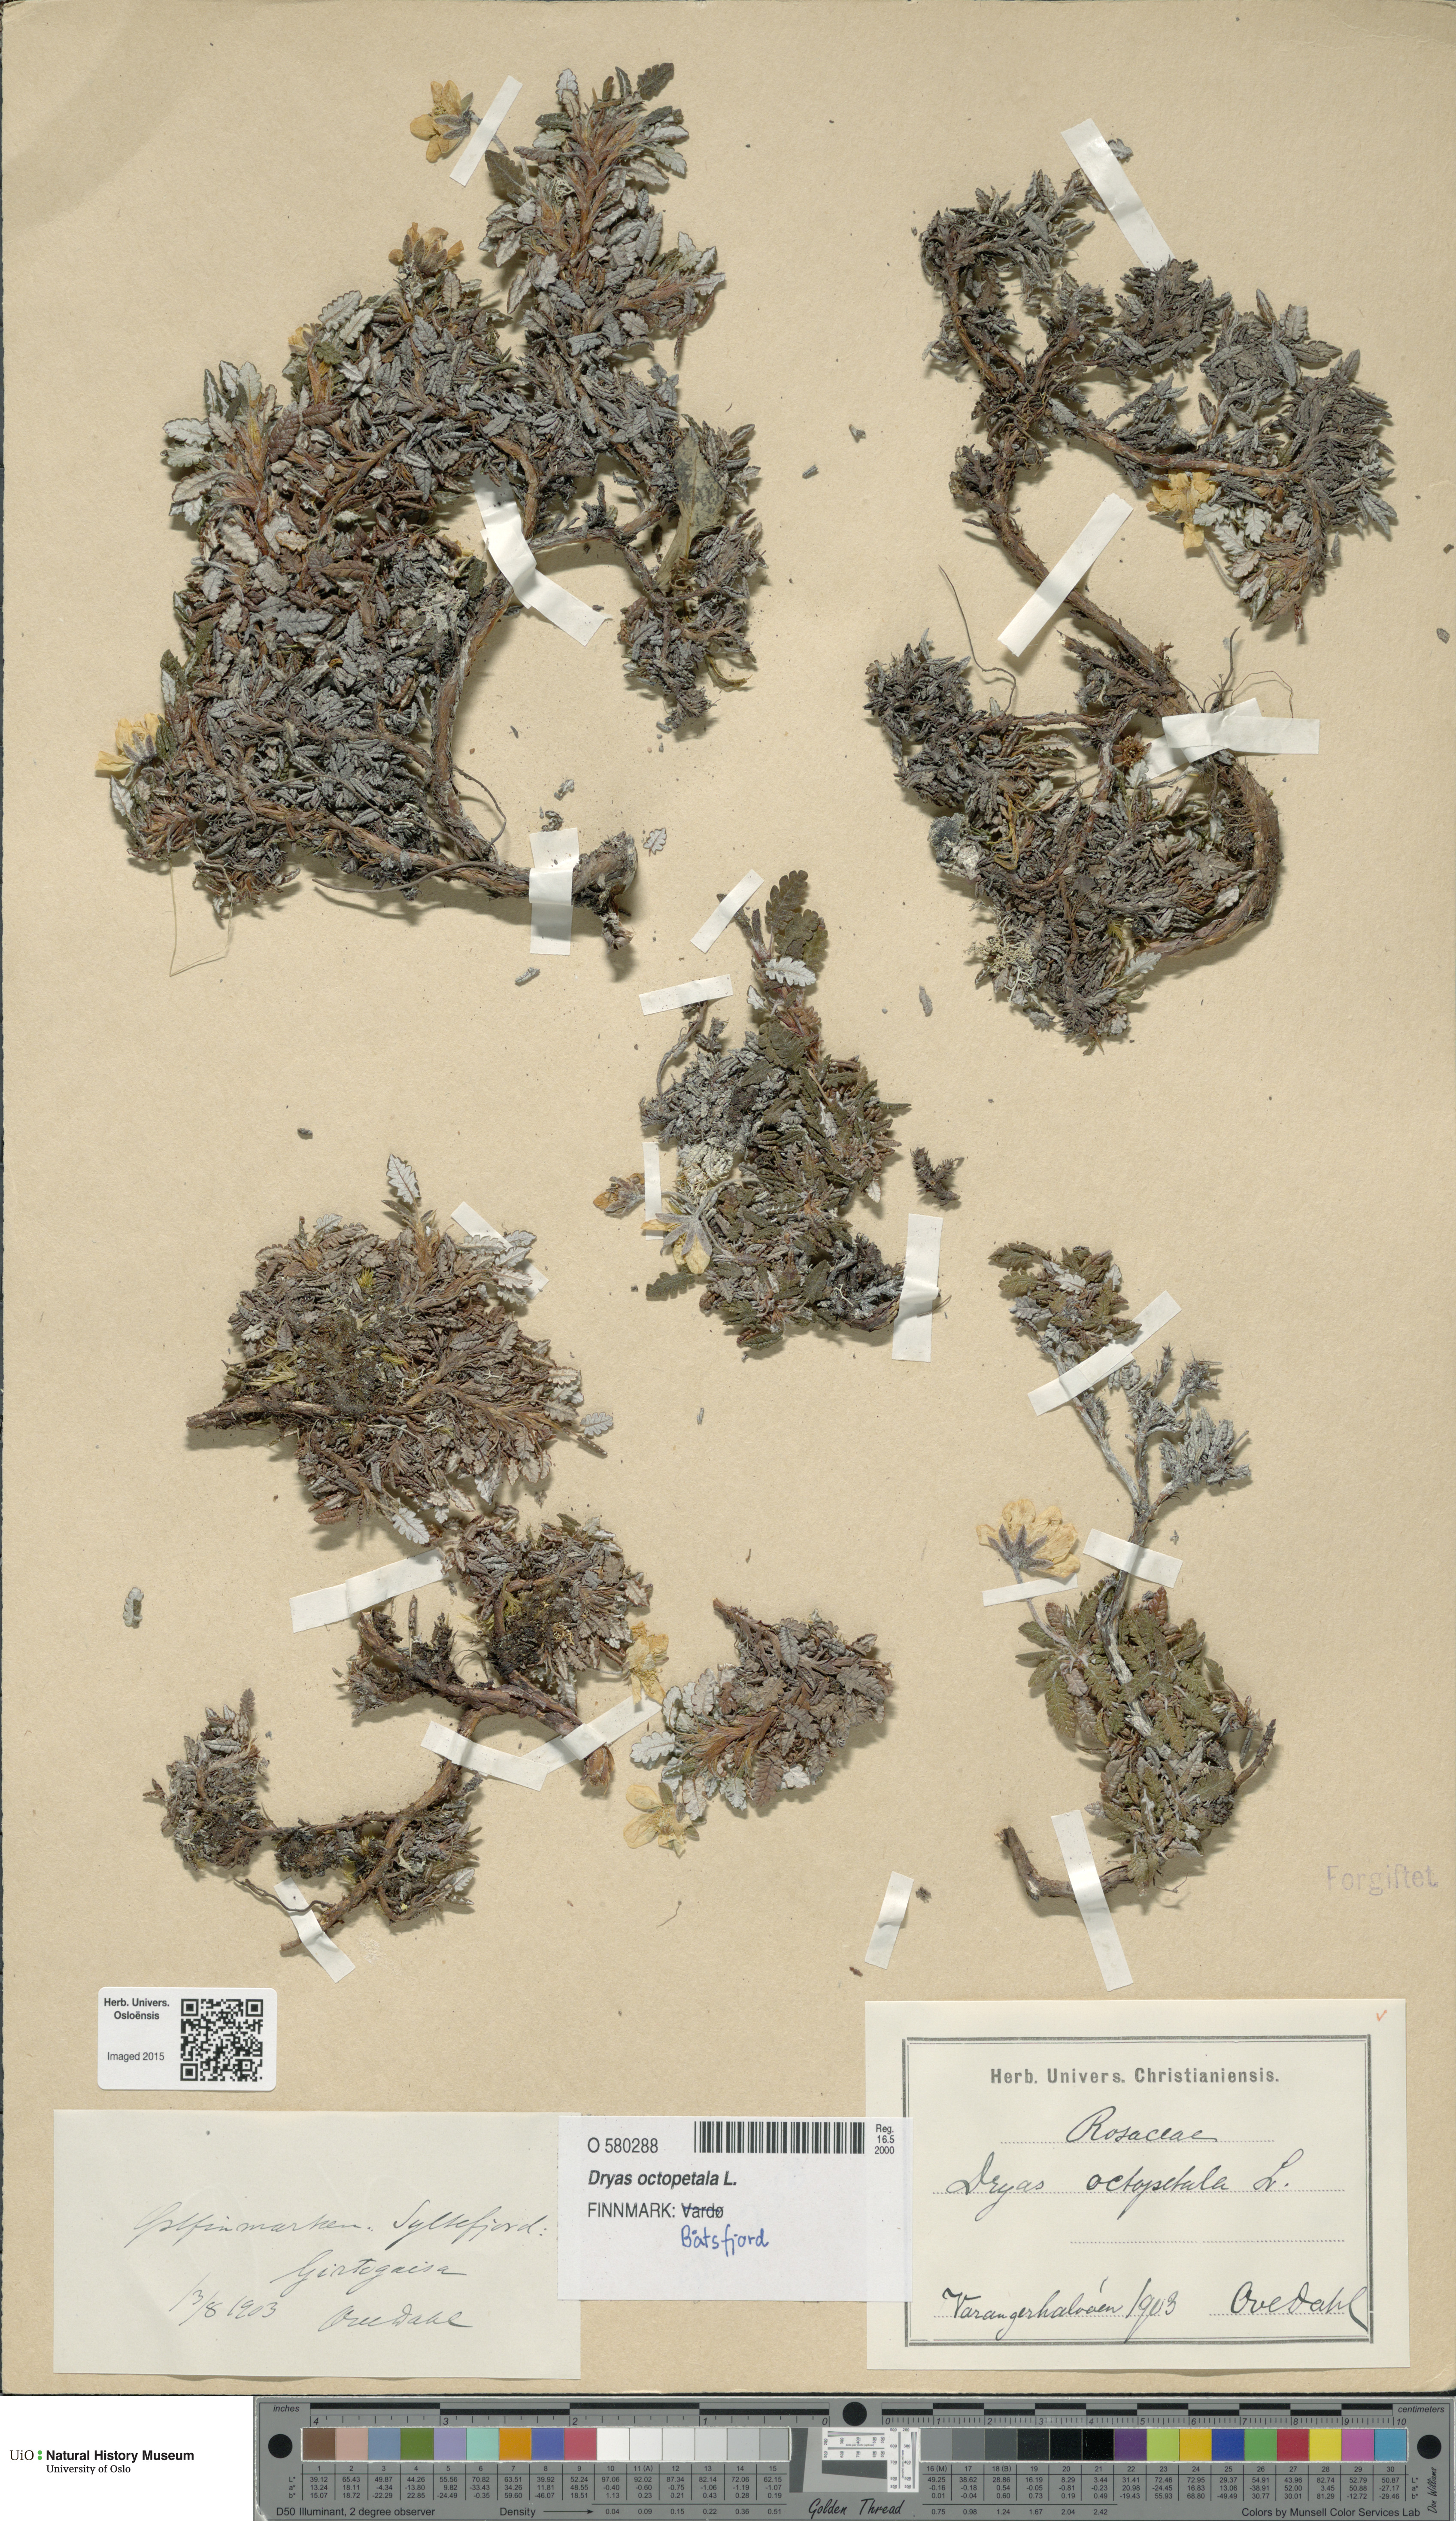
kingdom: Plantae
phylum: Tracheophyta
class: Magnoliopsida
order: Rosales
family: Rosaceae
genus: Dryas
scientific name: Dryas octopetala
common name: Eight-petal mountain-avens
